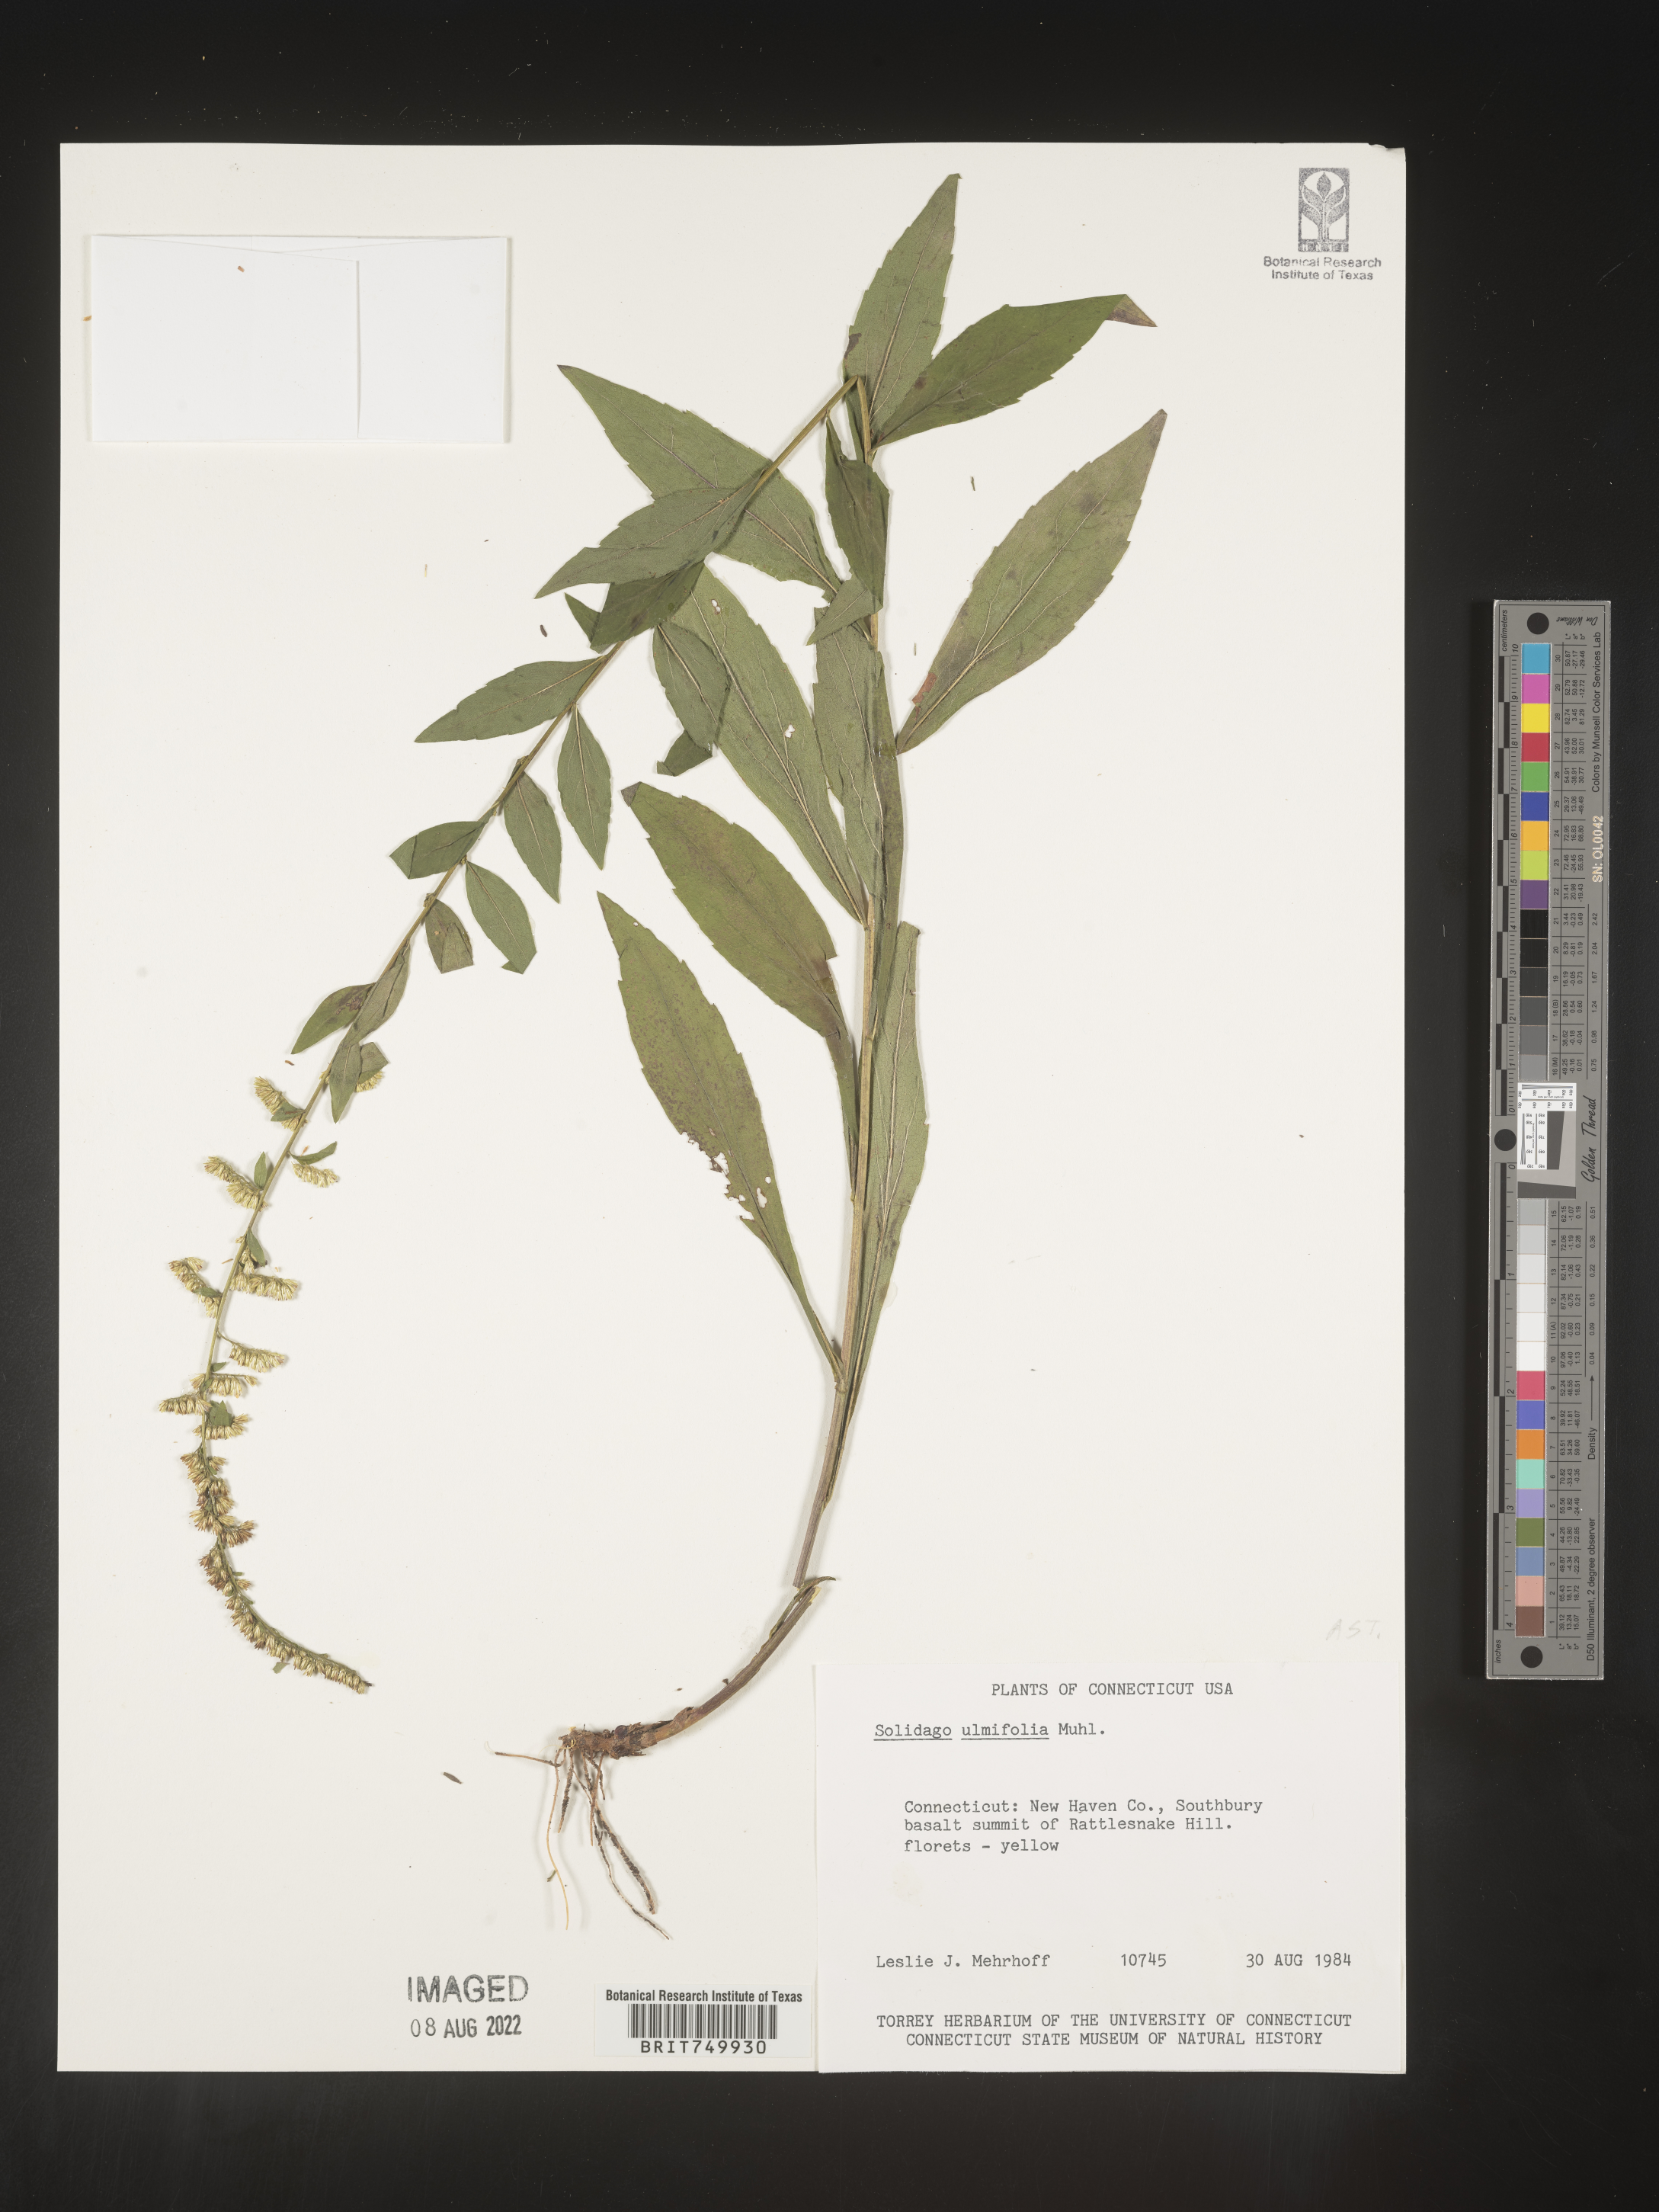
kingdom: Plantae
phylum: Tracheophyta
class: Magnoliopsida
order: Asterales
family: Asteraceae
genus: Solidago
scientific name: Solidago ulmifolia
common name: Elm-leaf goldenrod
